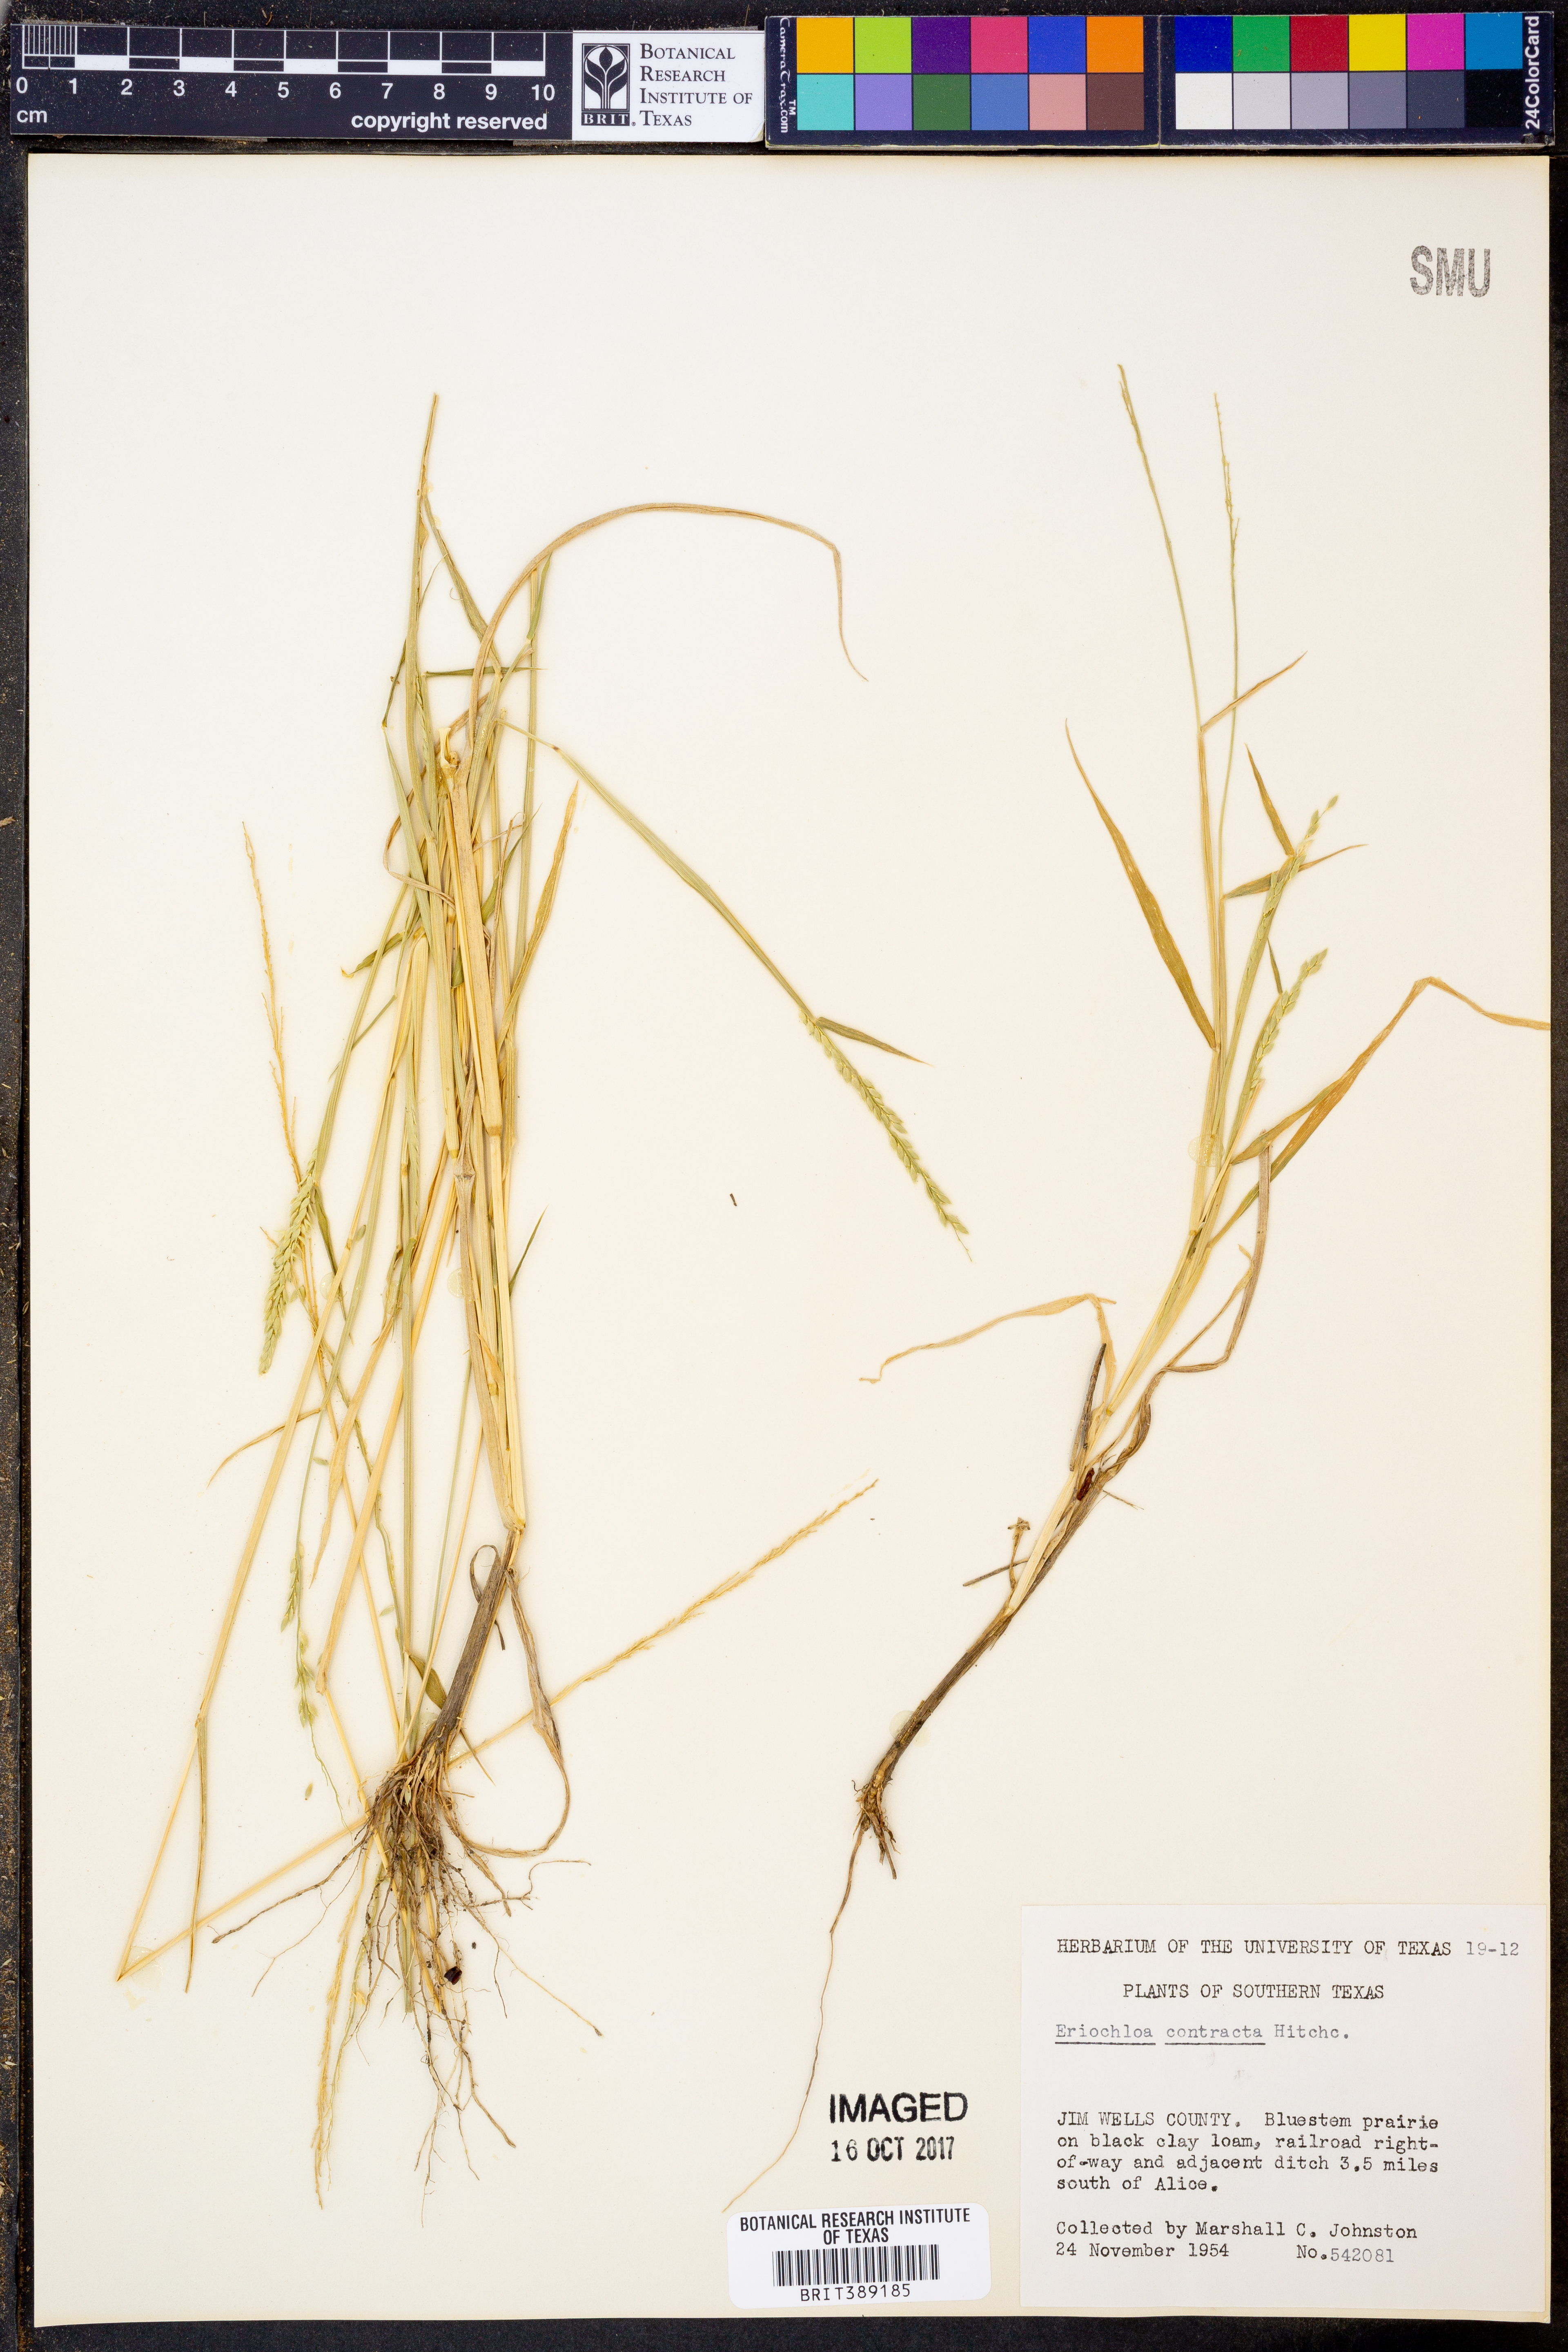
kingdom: Plantae
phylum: Tracheophyta
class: Liliopsida
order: Poales
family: Poaceae
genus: Eriochloa
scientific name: Eriochloa contracta
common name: Prairie cup grass
